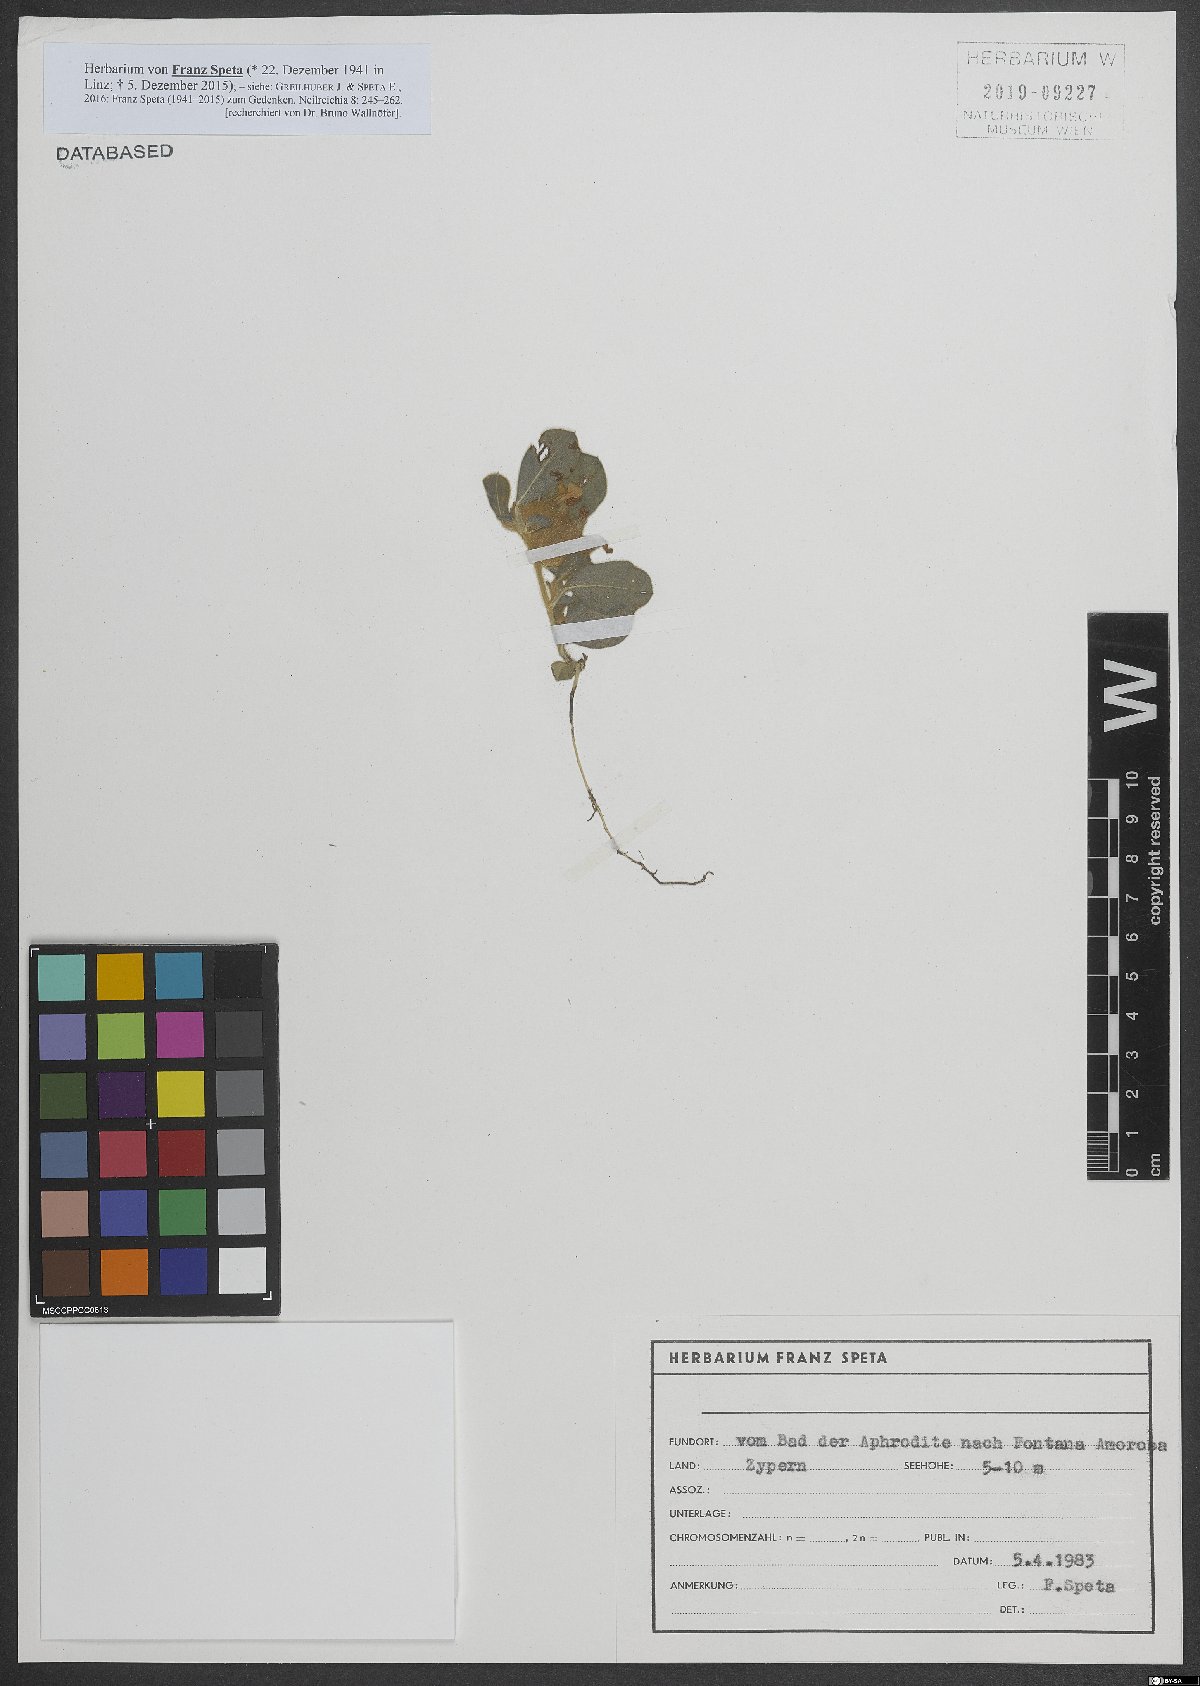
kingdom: Plantae
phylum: Tracheophyta
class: Magnoliopsida
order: Fabales
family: Fabaceae
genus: Tripodion
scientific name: Tripodion tetraphyllum
